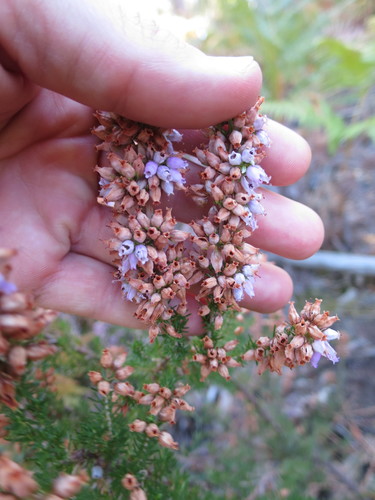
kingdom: Plantae
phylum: Tracheophyta
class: Magnoliopsida
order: Ericales
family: Ericaceae
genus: Erica
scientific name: Erica cinerea
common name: Bell heather
